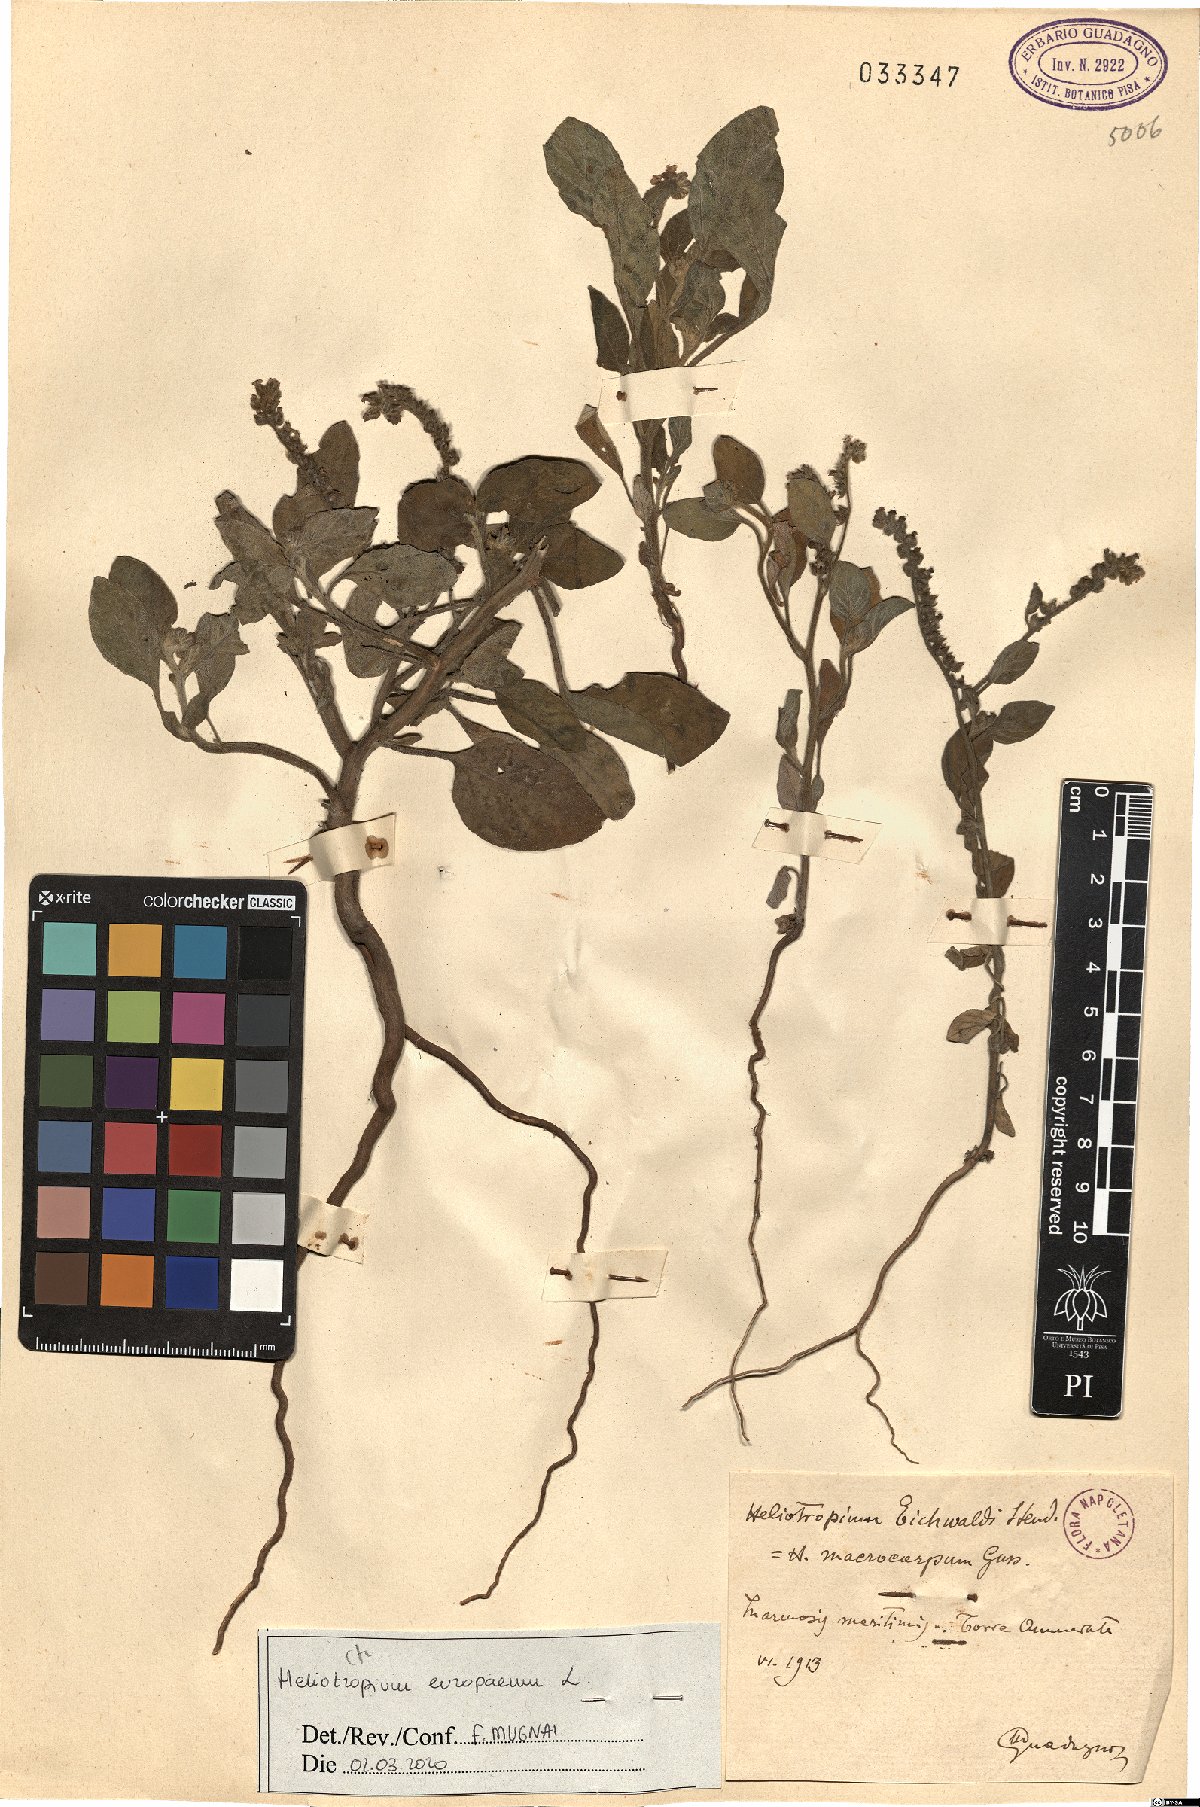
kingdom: Plantae
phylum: Tracheophyta
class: Magnoliopsida
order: Boraginales
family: Heliotropiaceae
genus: Heliotropium
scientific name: Heliotropium europaeum
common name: European heliotrope
